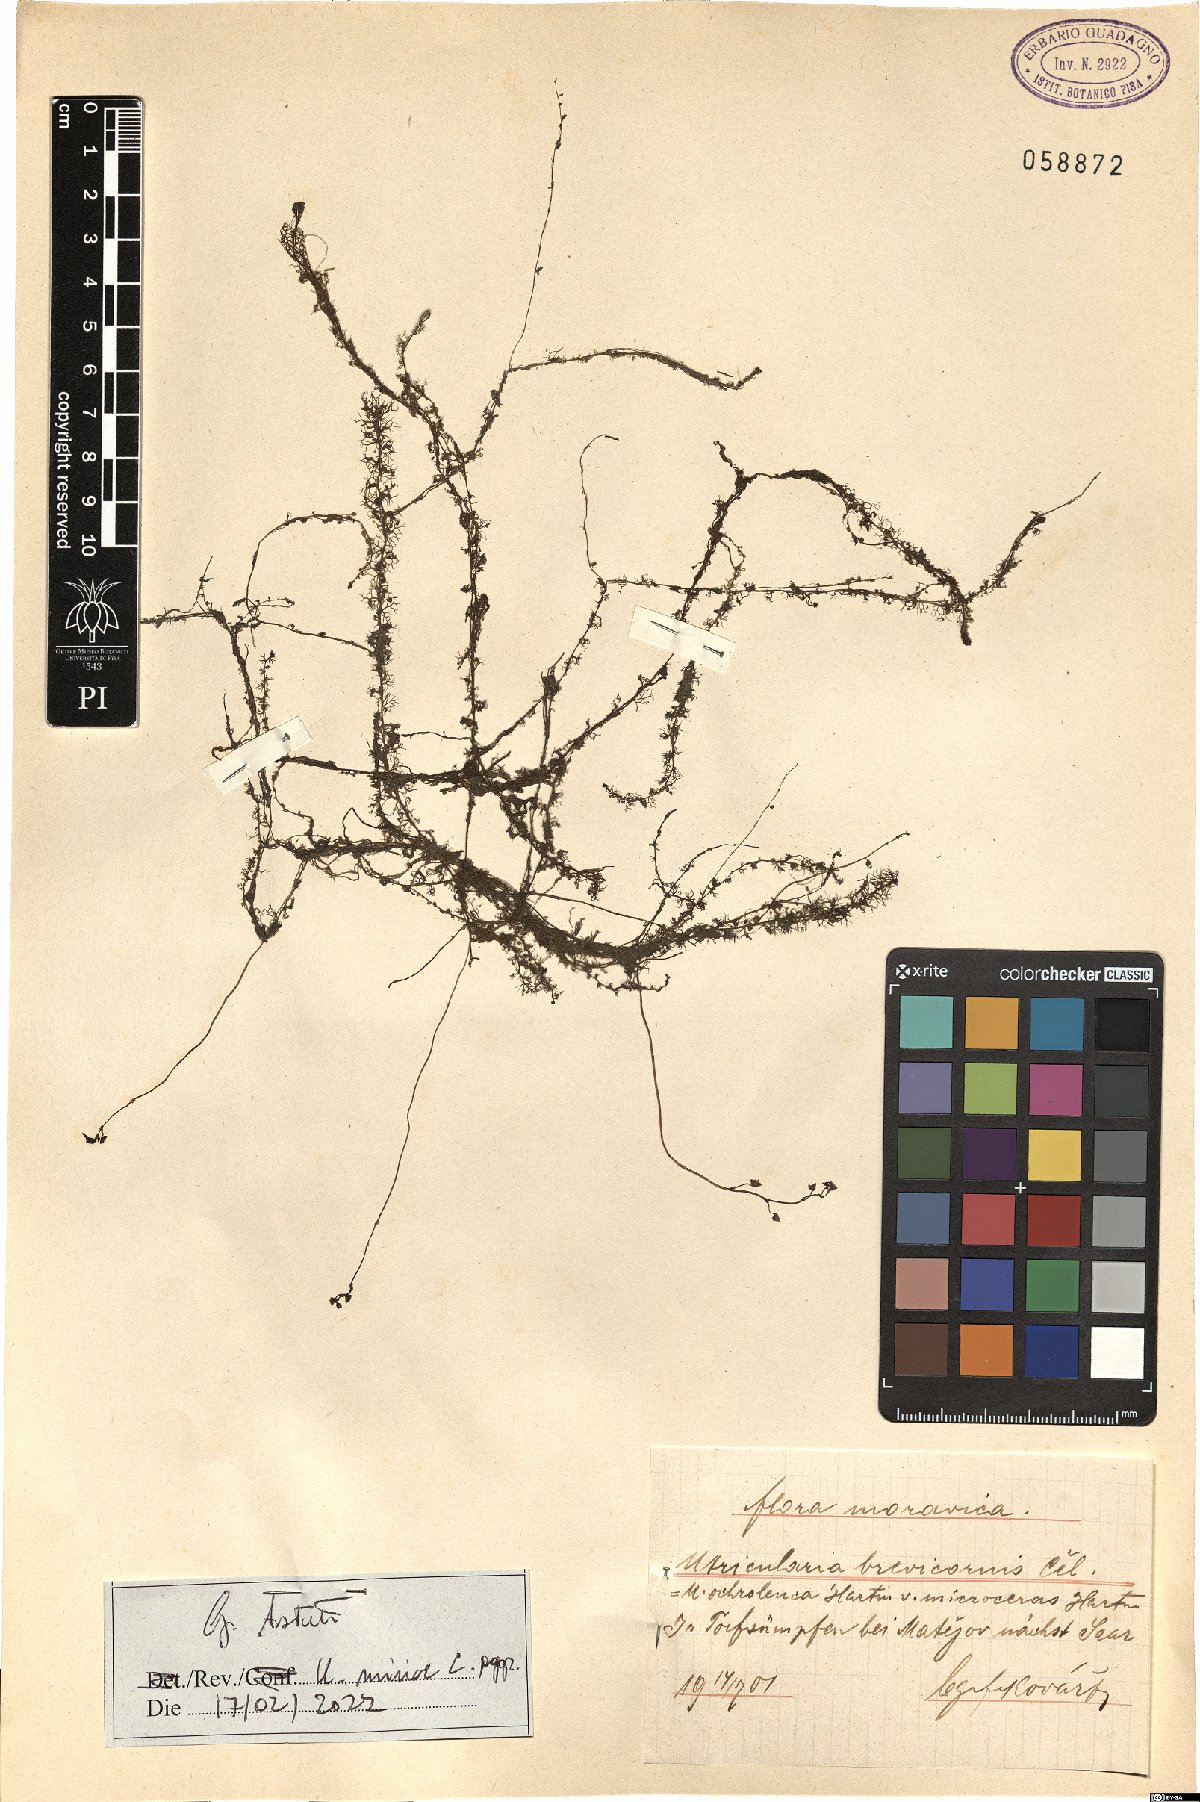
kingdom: Plantae
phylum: Tracheophyta
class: Magnoliopsida
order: Lamiales
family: Lentibulariaceae
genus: Utricularia
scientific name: Utricularia minor
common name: Lesser bladderwort
